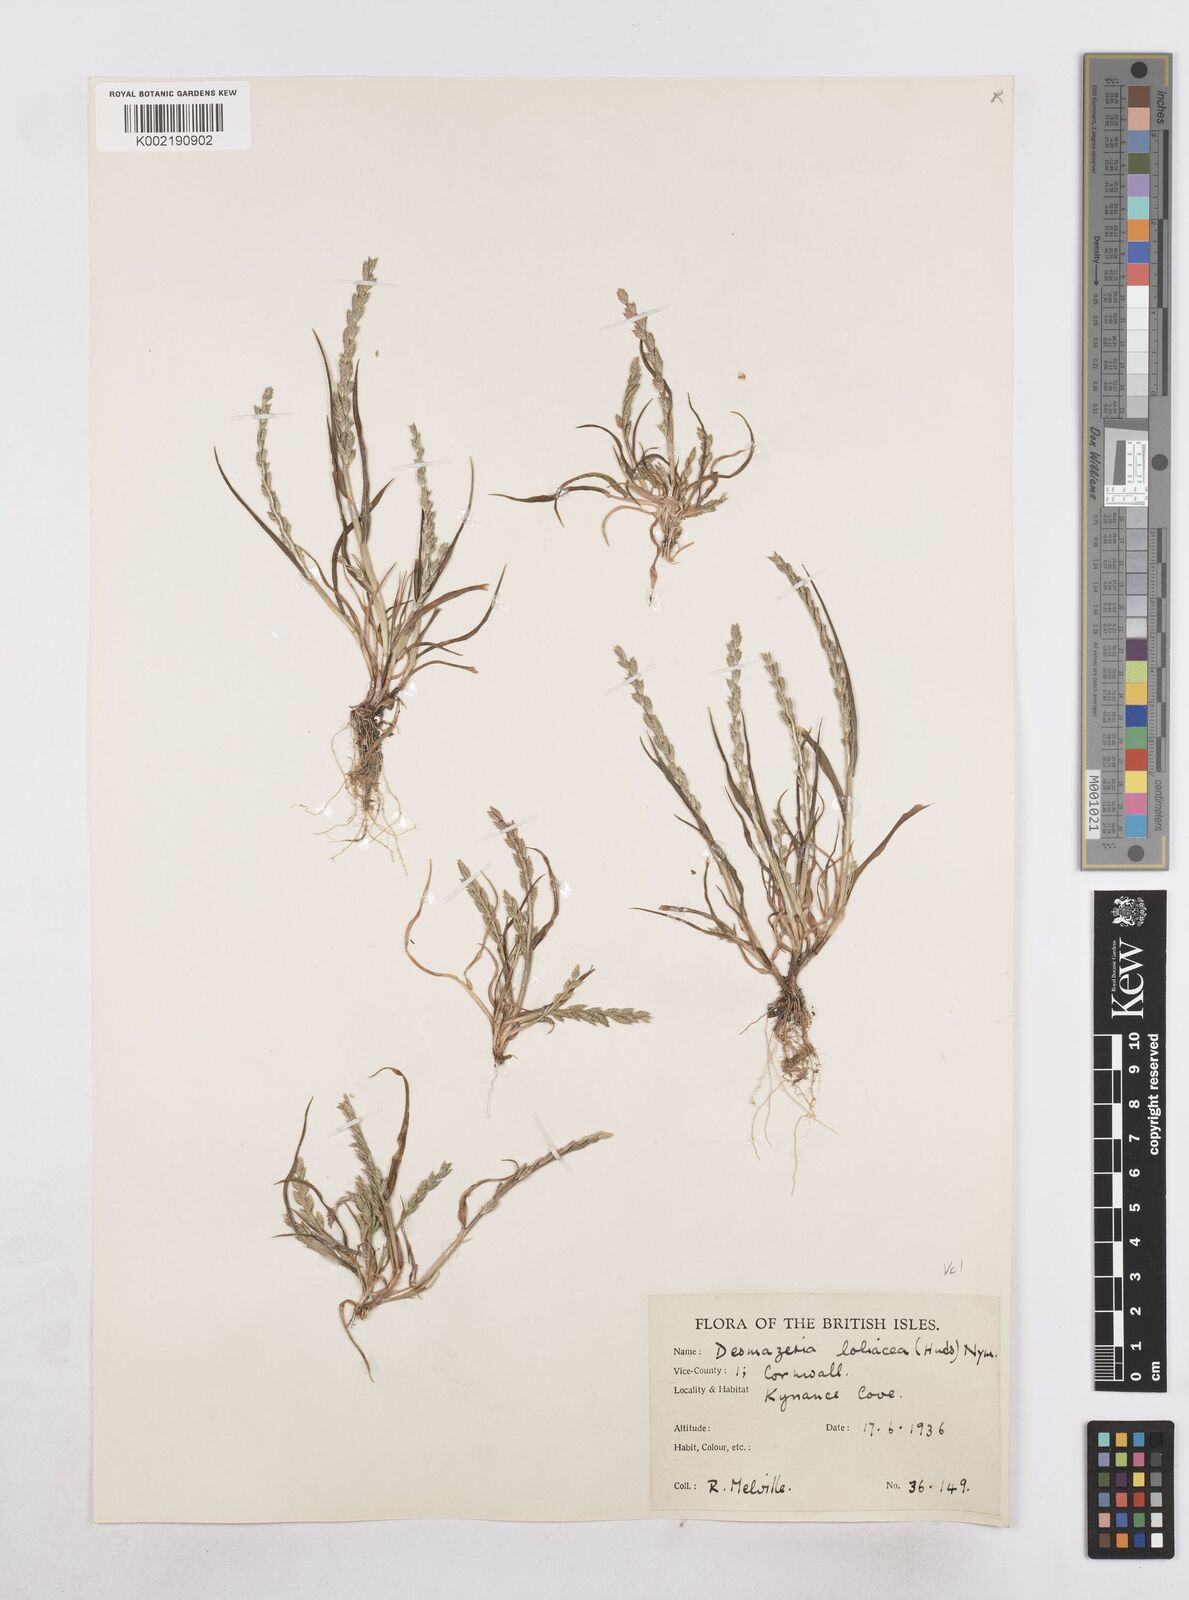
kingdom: Plantae
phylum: Tracheophyta
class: Liliopsida
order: Poales
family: Poaceae
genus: Catapodium
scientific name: Catapodium marinum
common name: Sea fern-grass
